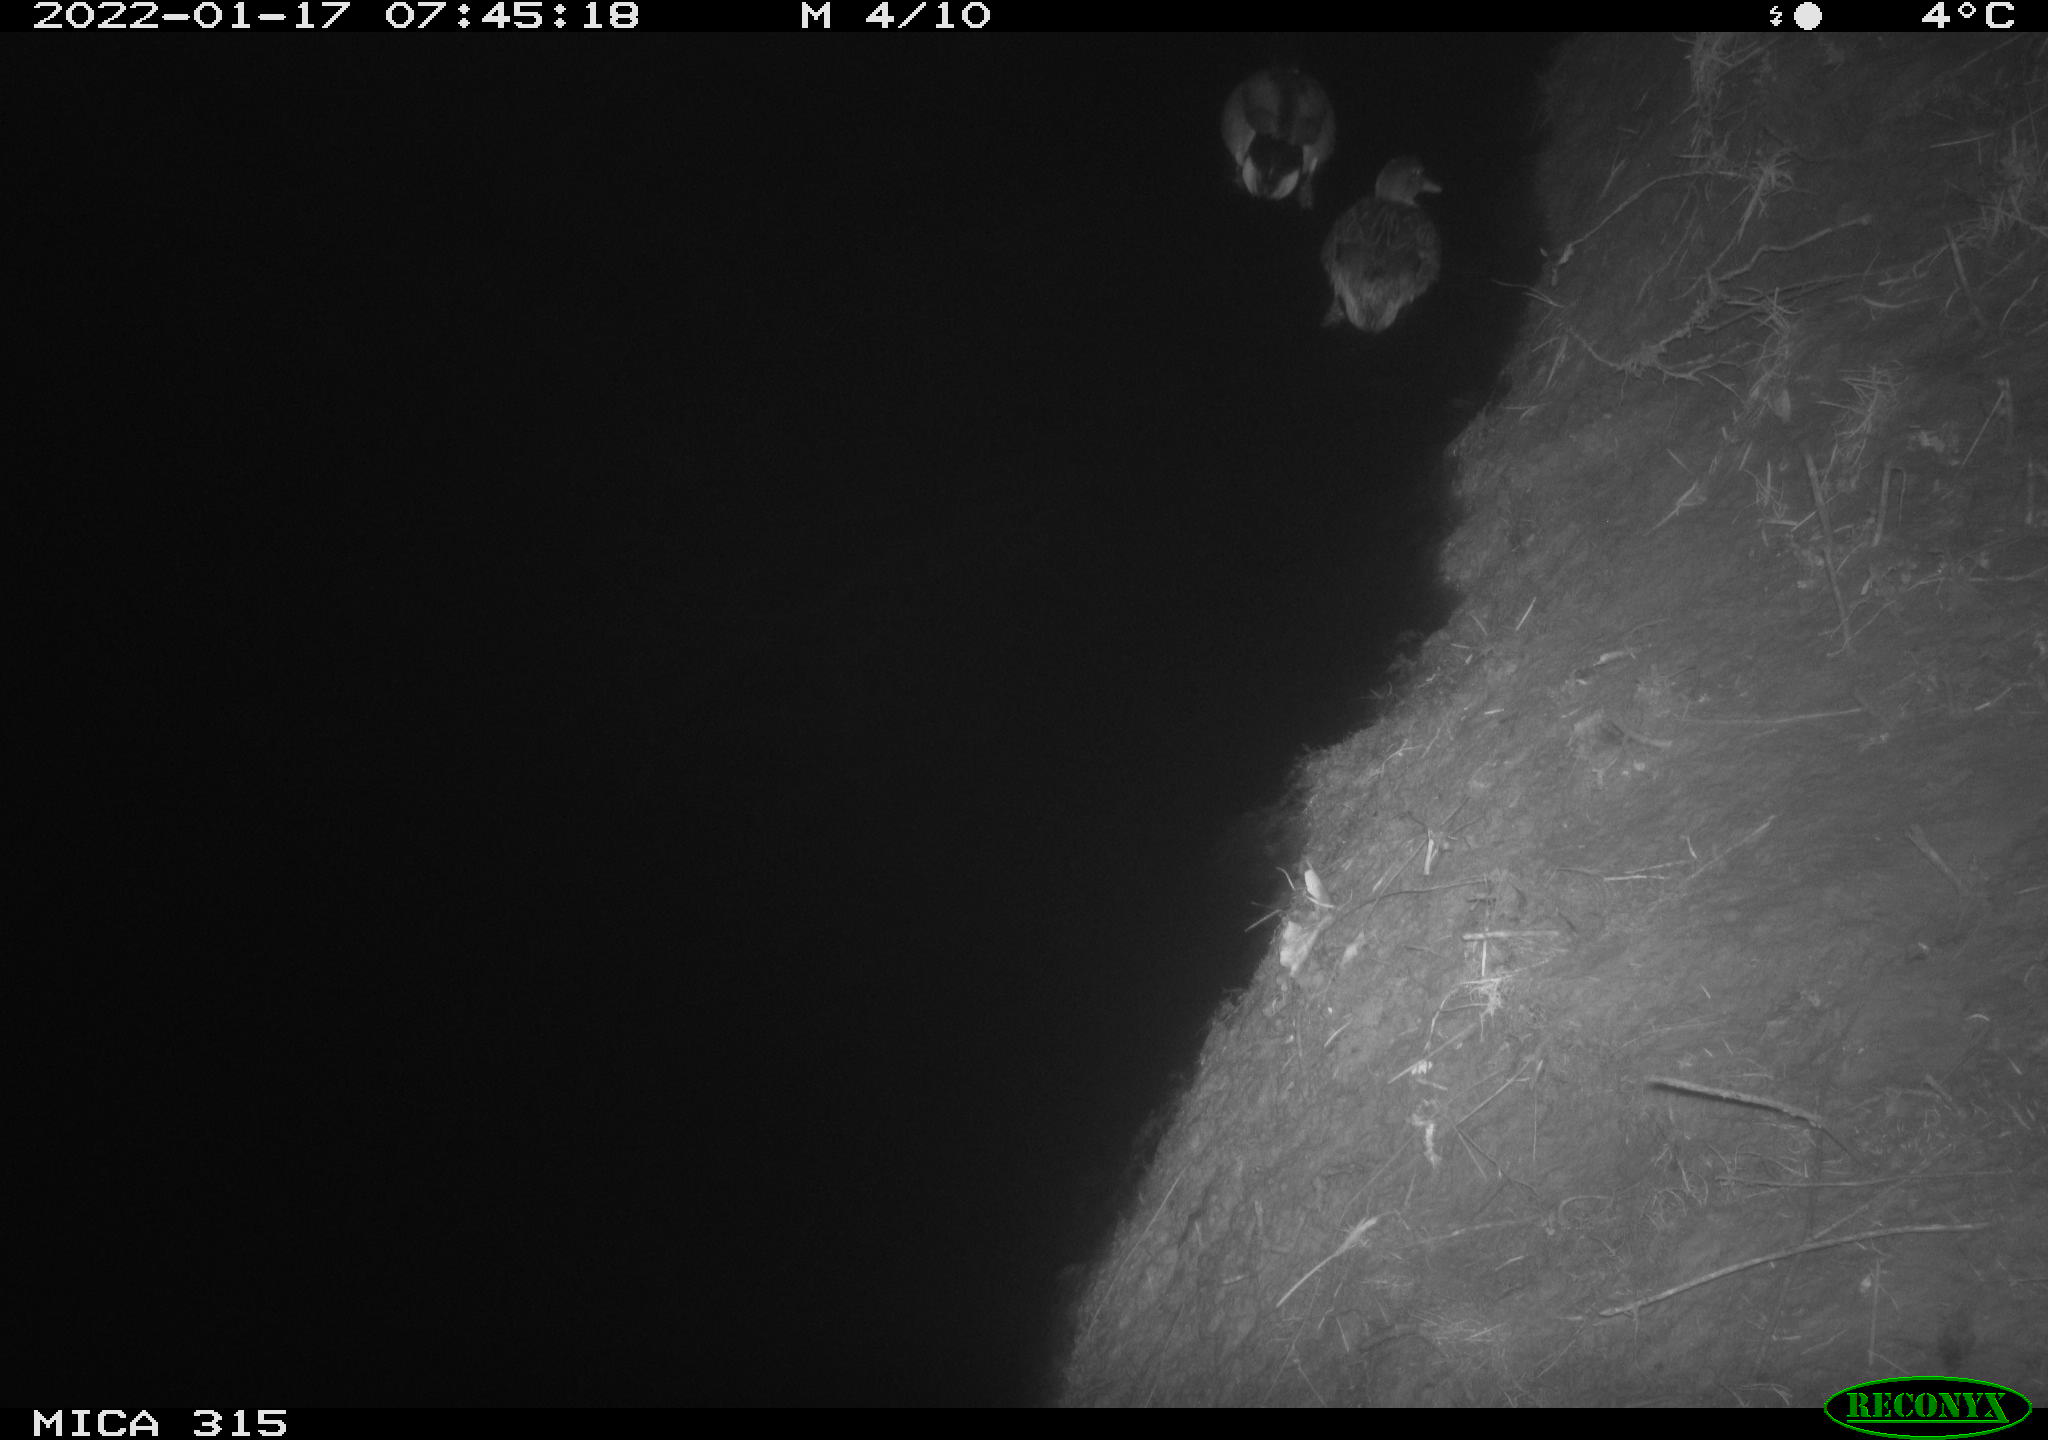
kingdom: Animalia
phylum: Chordata
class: Aves
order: Anseriformes
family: Anatidae
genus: Anas
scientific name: Anas
